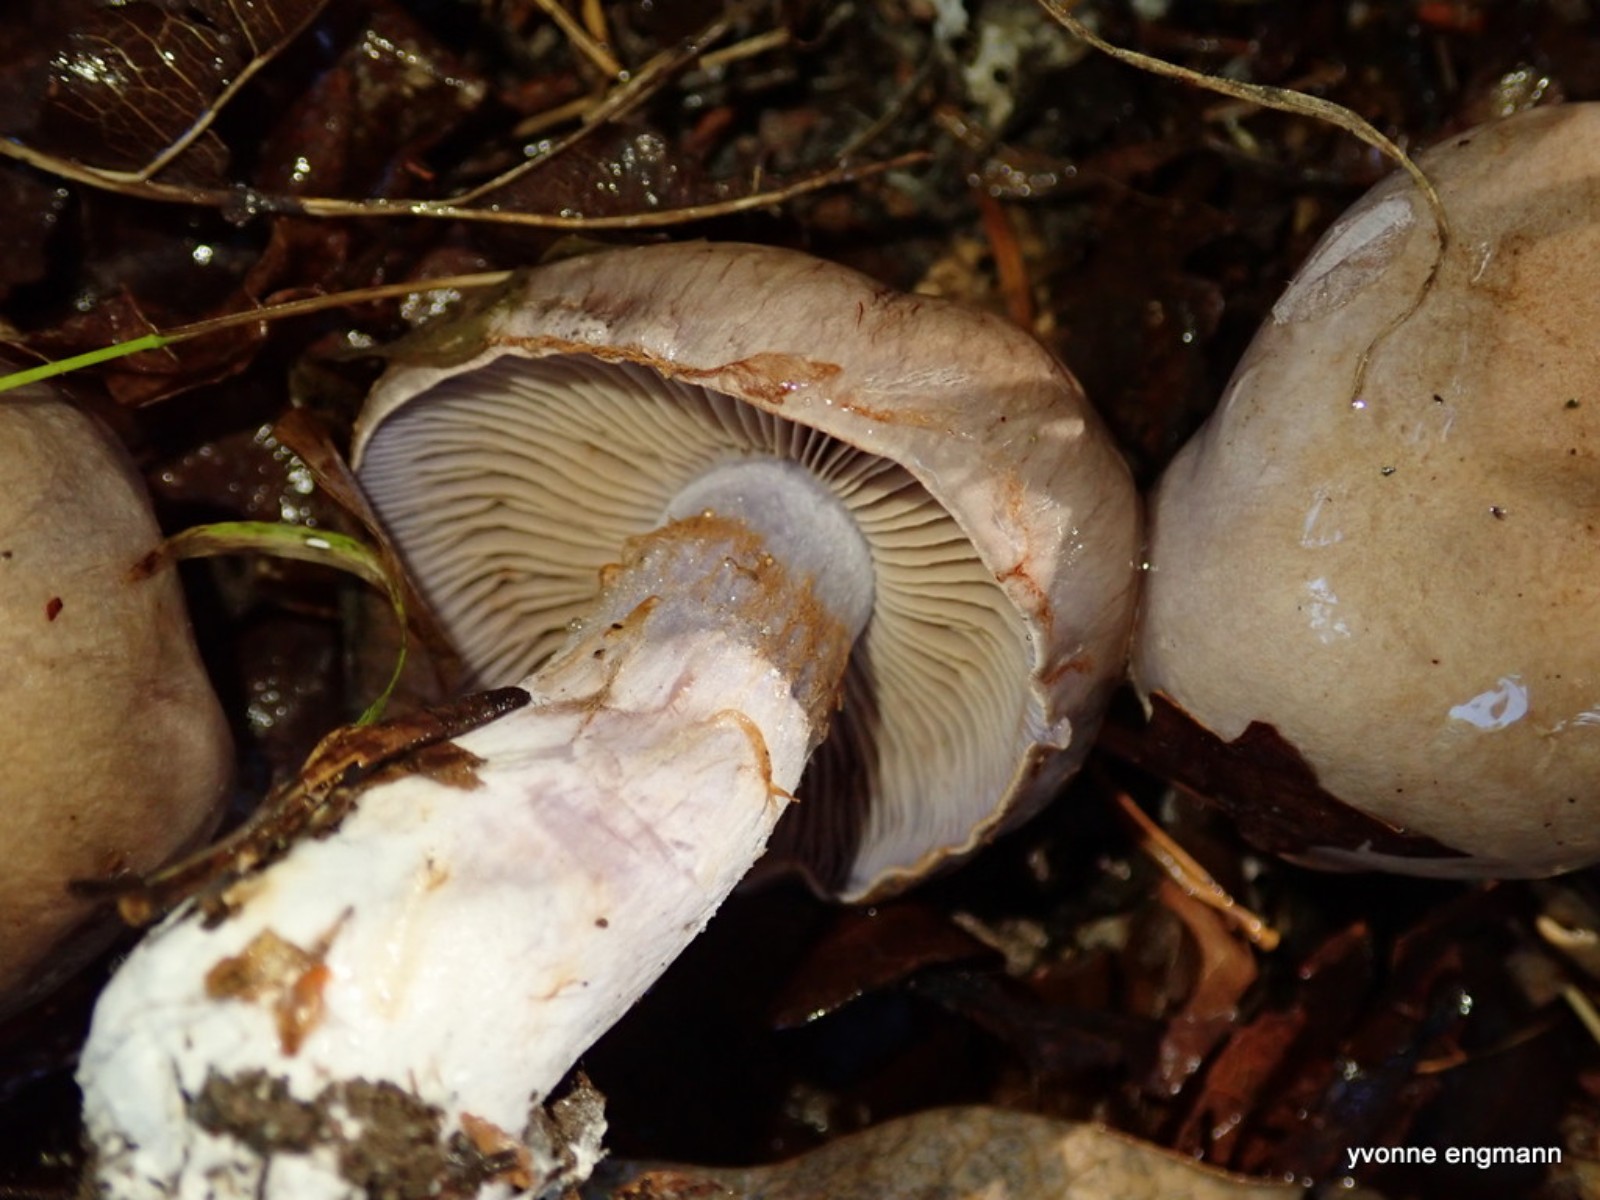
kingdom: Fungi
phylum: Basidiomycota
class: Agaricomycetes
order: Agaricales
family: Cortinariaceae
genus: Cortinarius
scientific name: Cortinarius largus
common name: violetrandet slørhat
